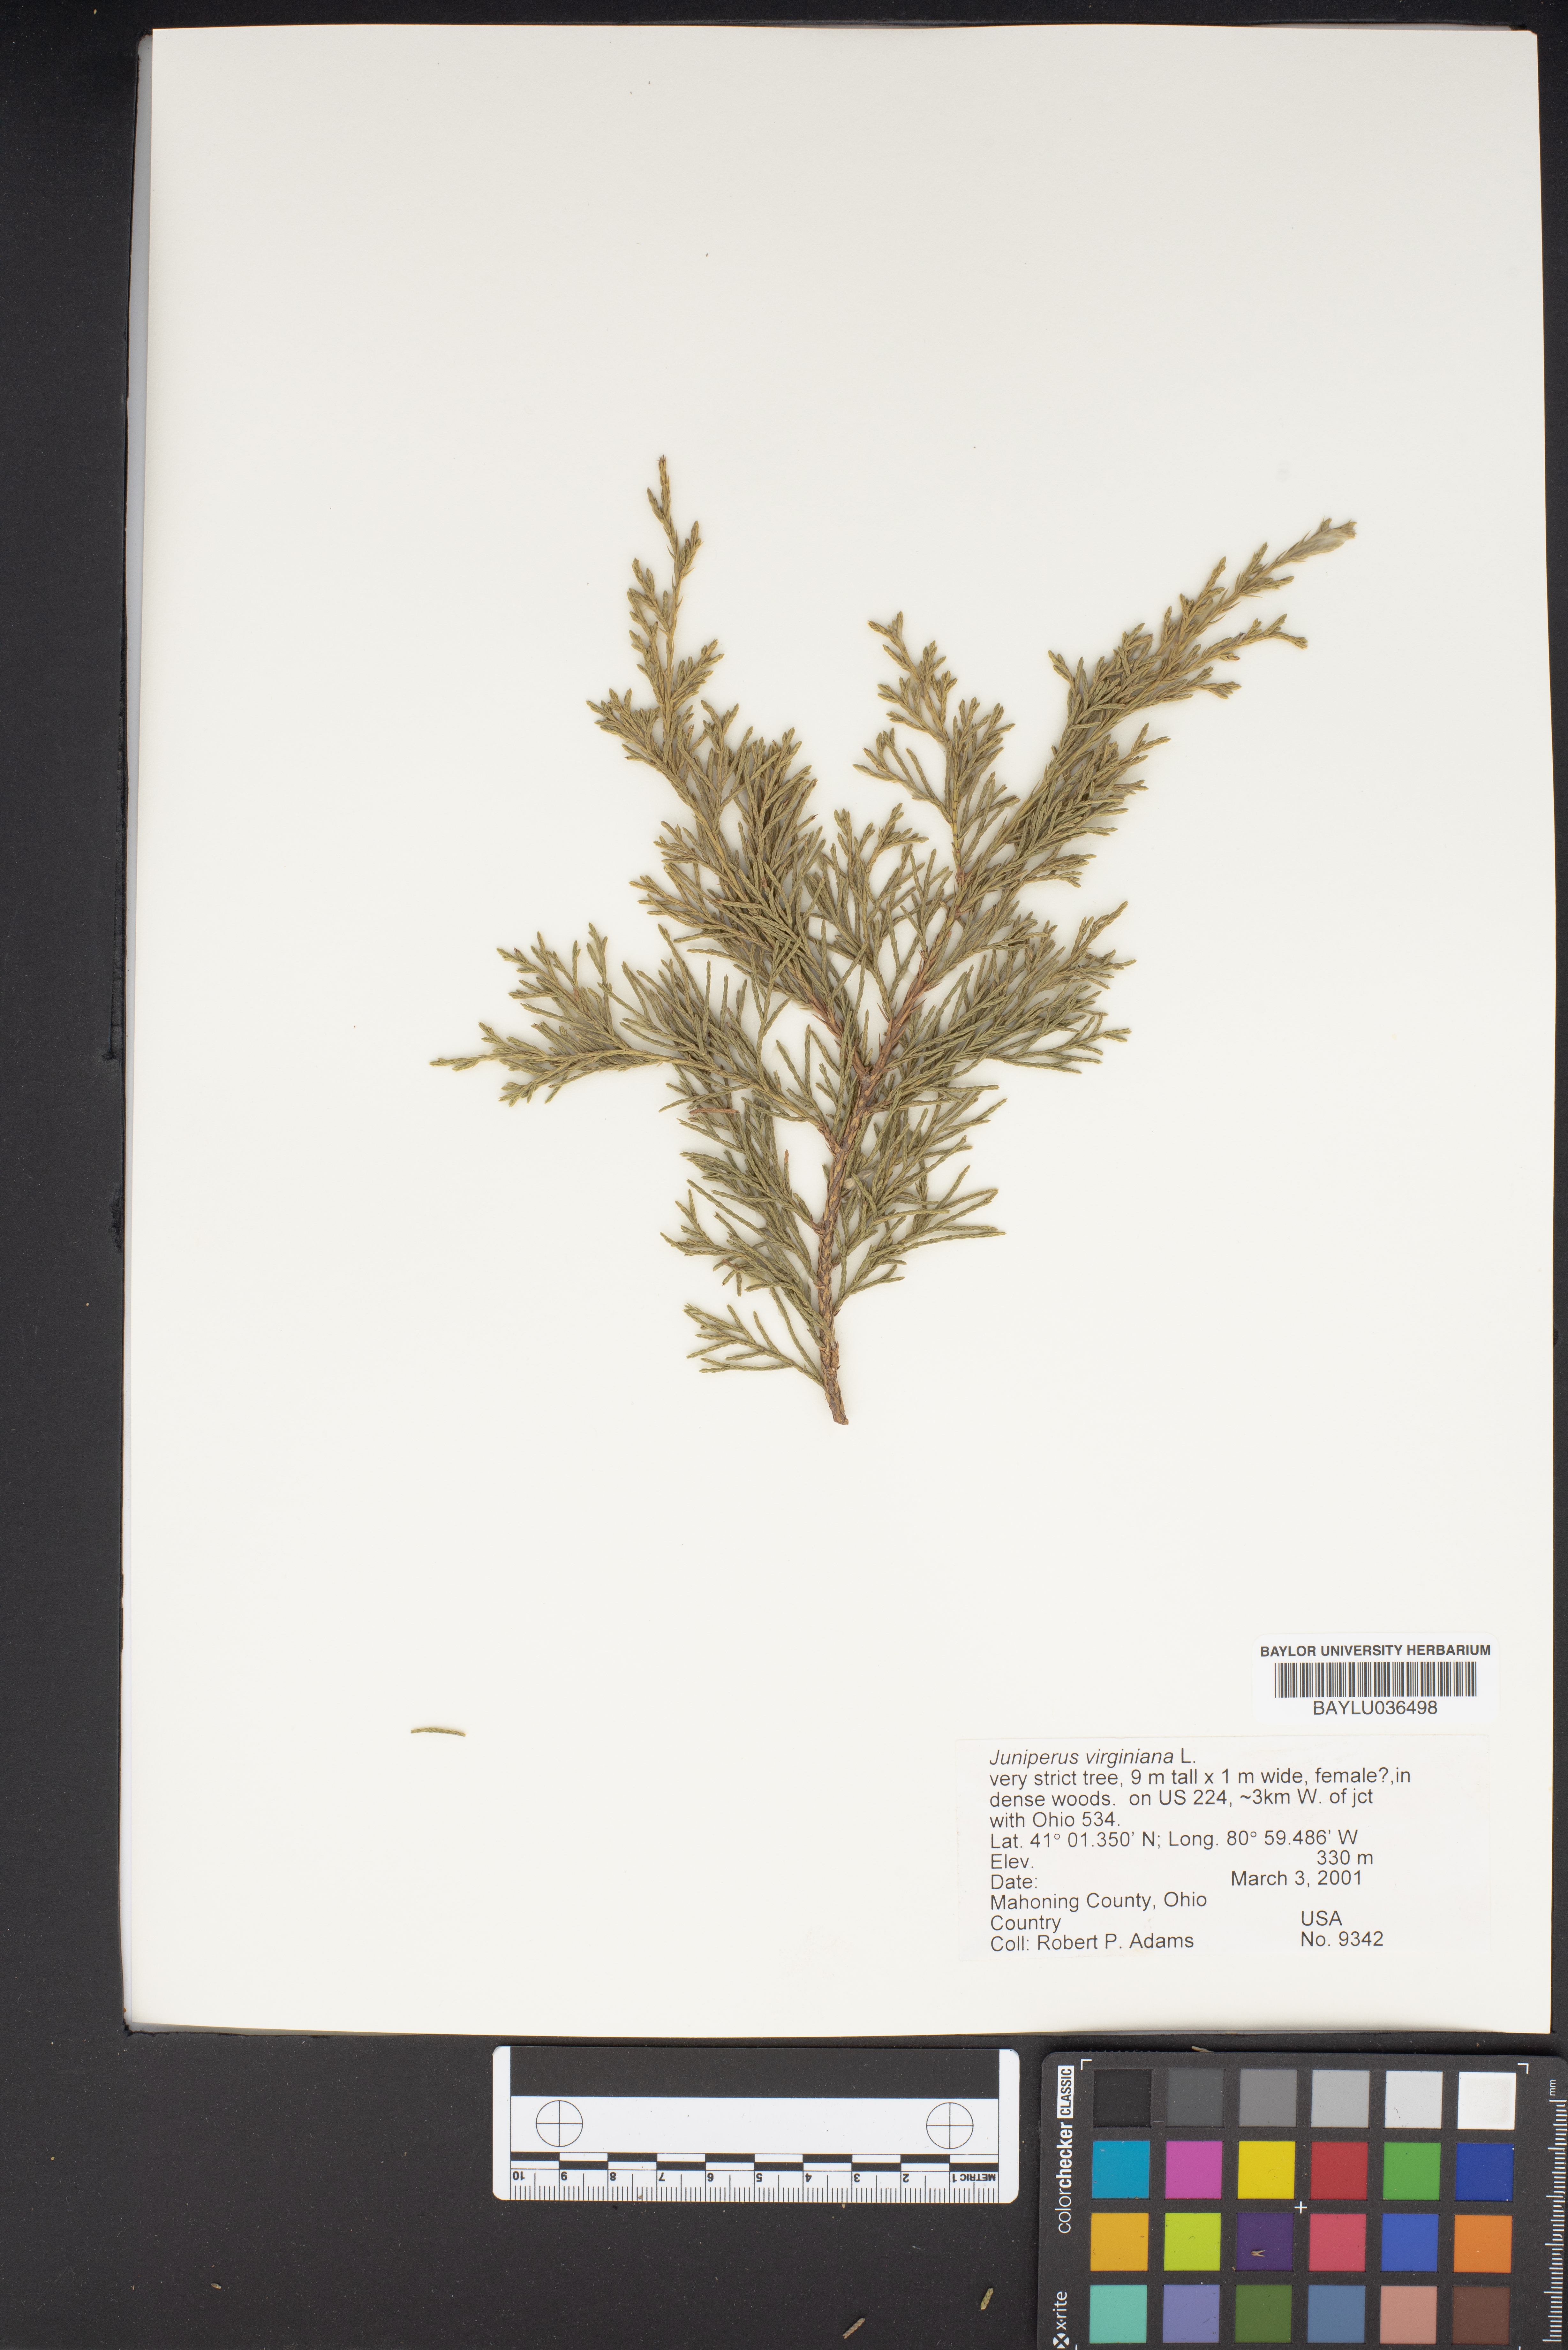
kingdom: Plantae
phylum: Tracheophyta
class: Pinopsida
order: Pinales
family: Cupressaceae
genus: Juniperus
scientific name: Juniperus virginiana
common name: Red juniper
